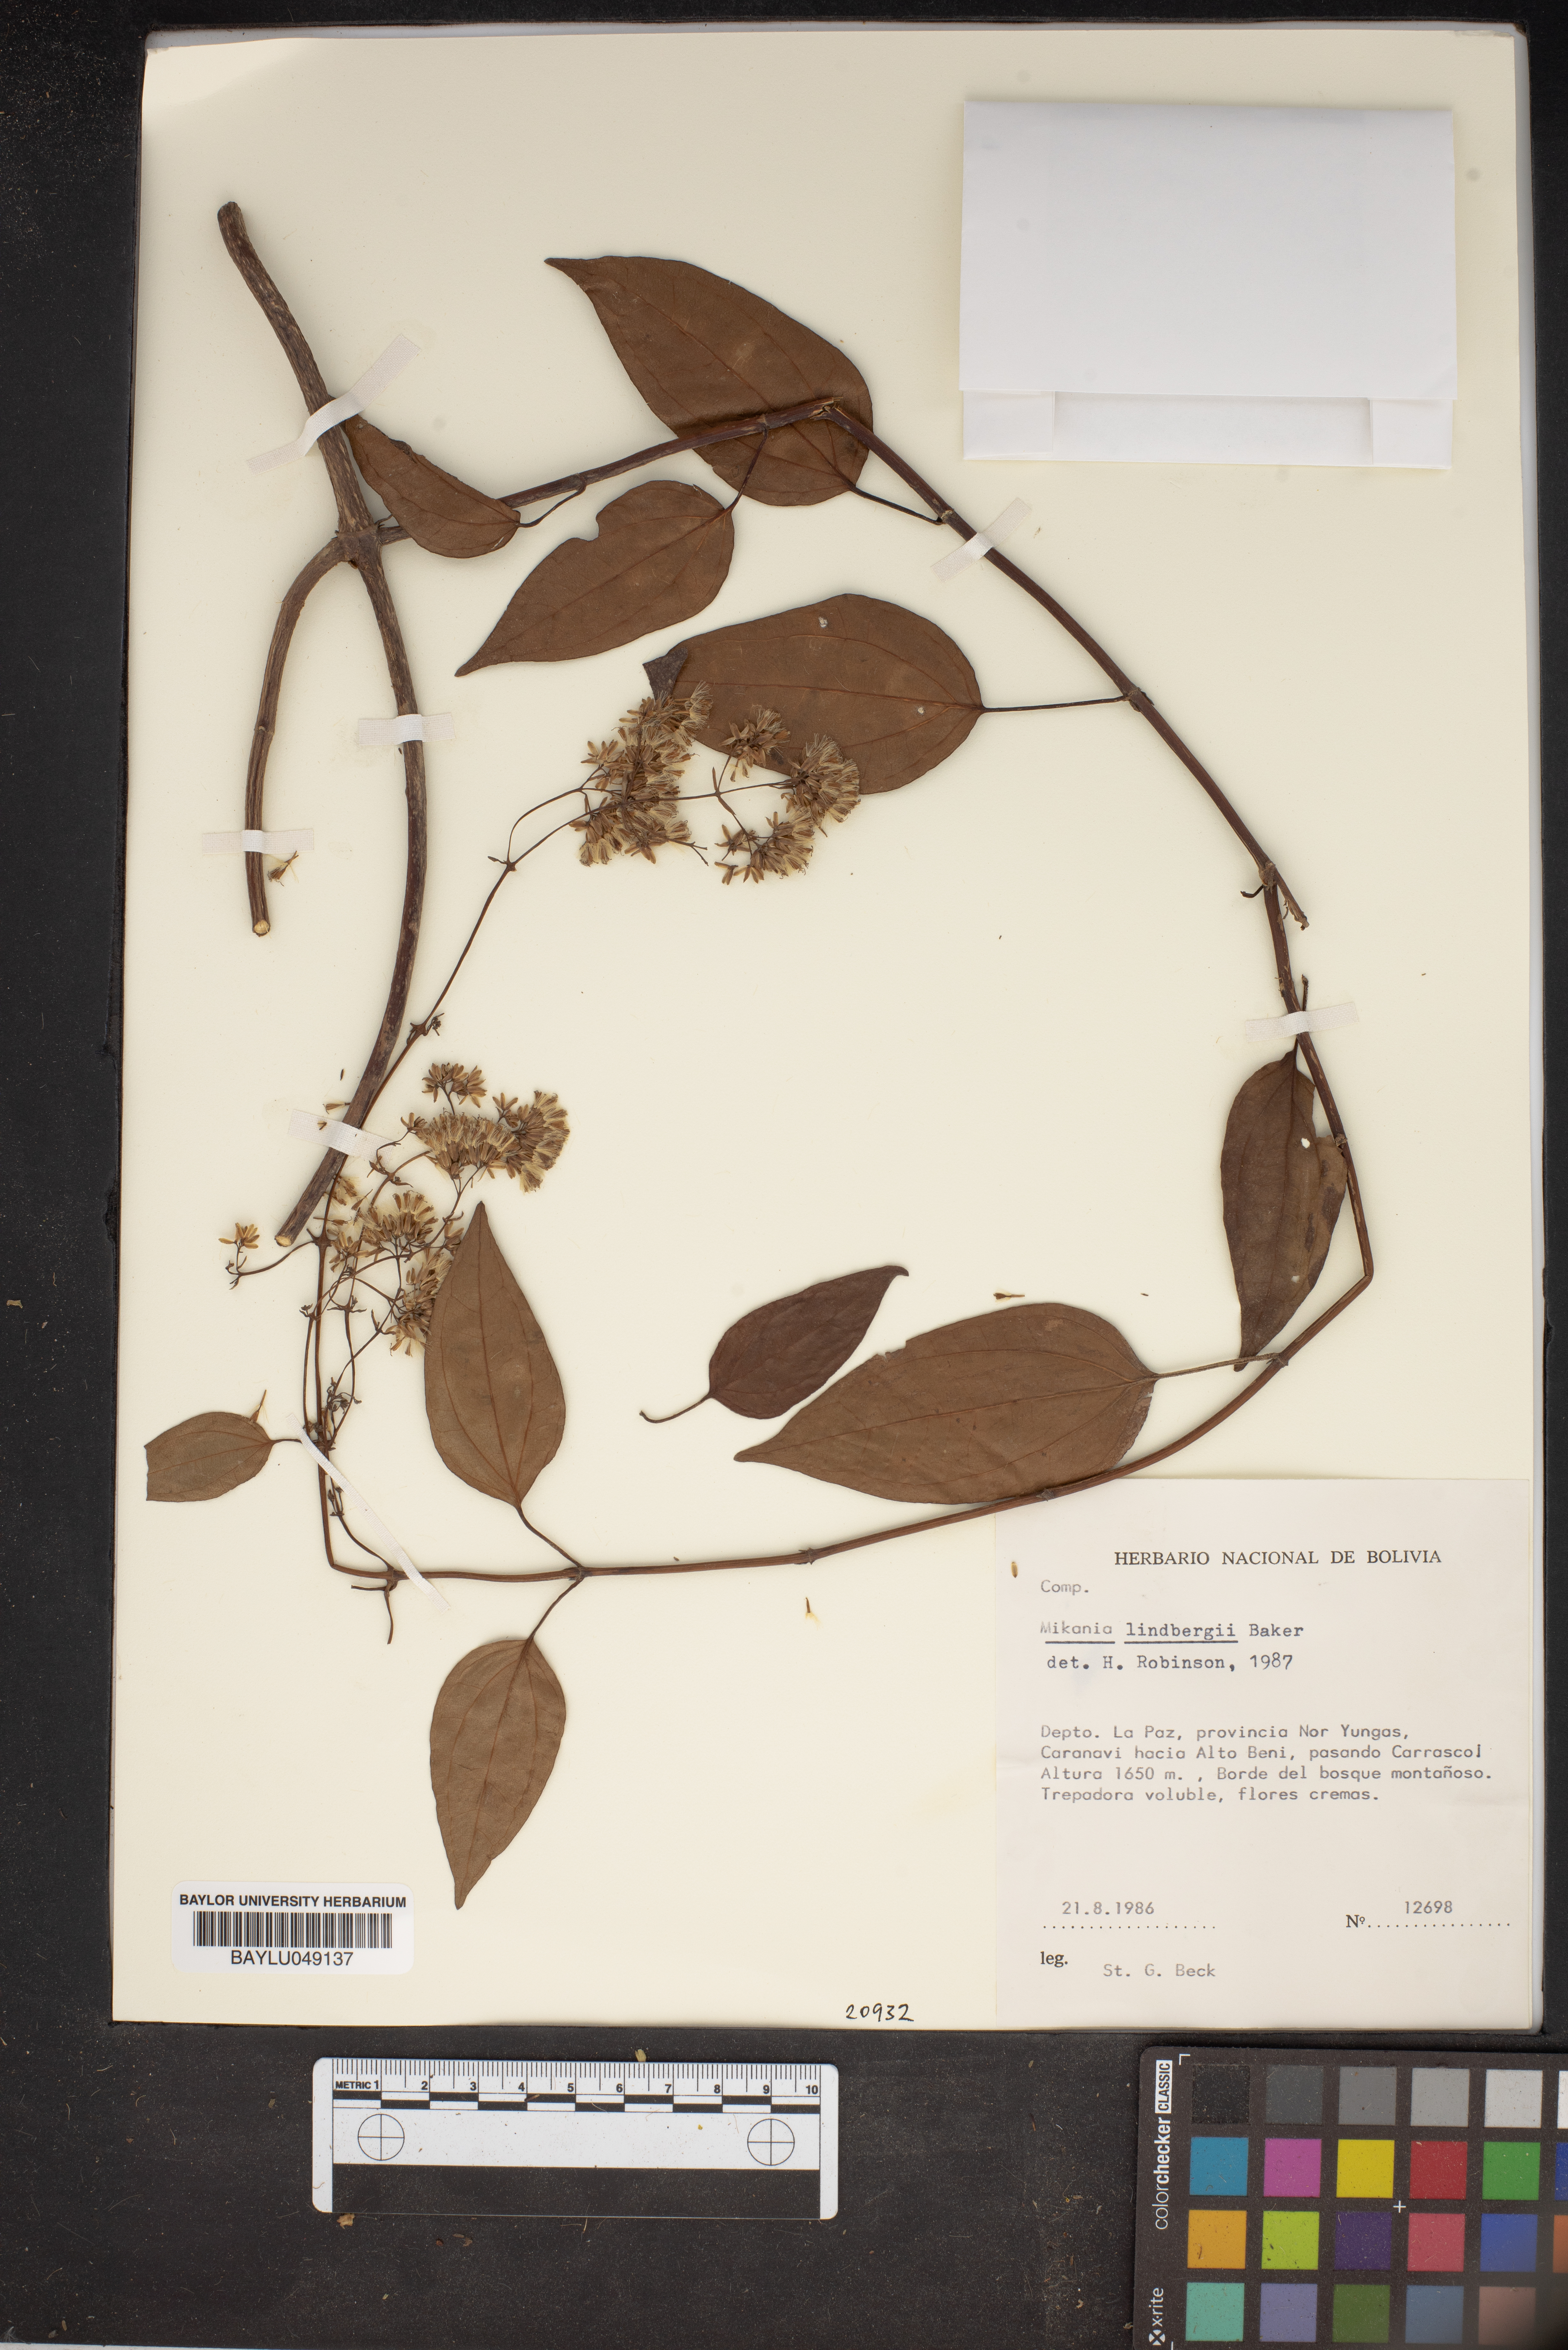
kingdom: Plantae
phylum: Tracheophyta
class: Magnoliopsida
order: Asterales
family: Asteraceae
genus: Mikania
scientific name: Mikania lindbergii
